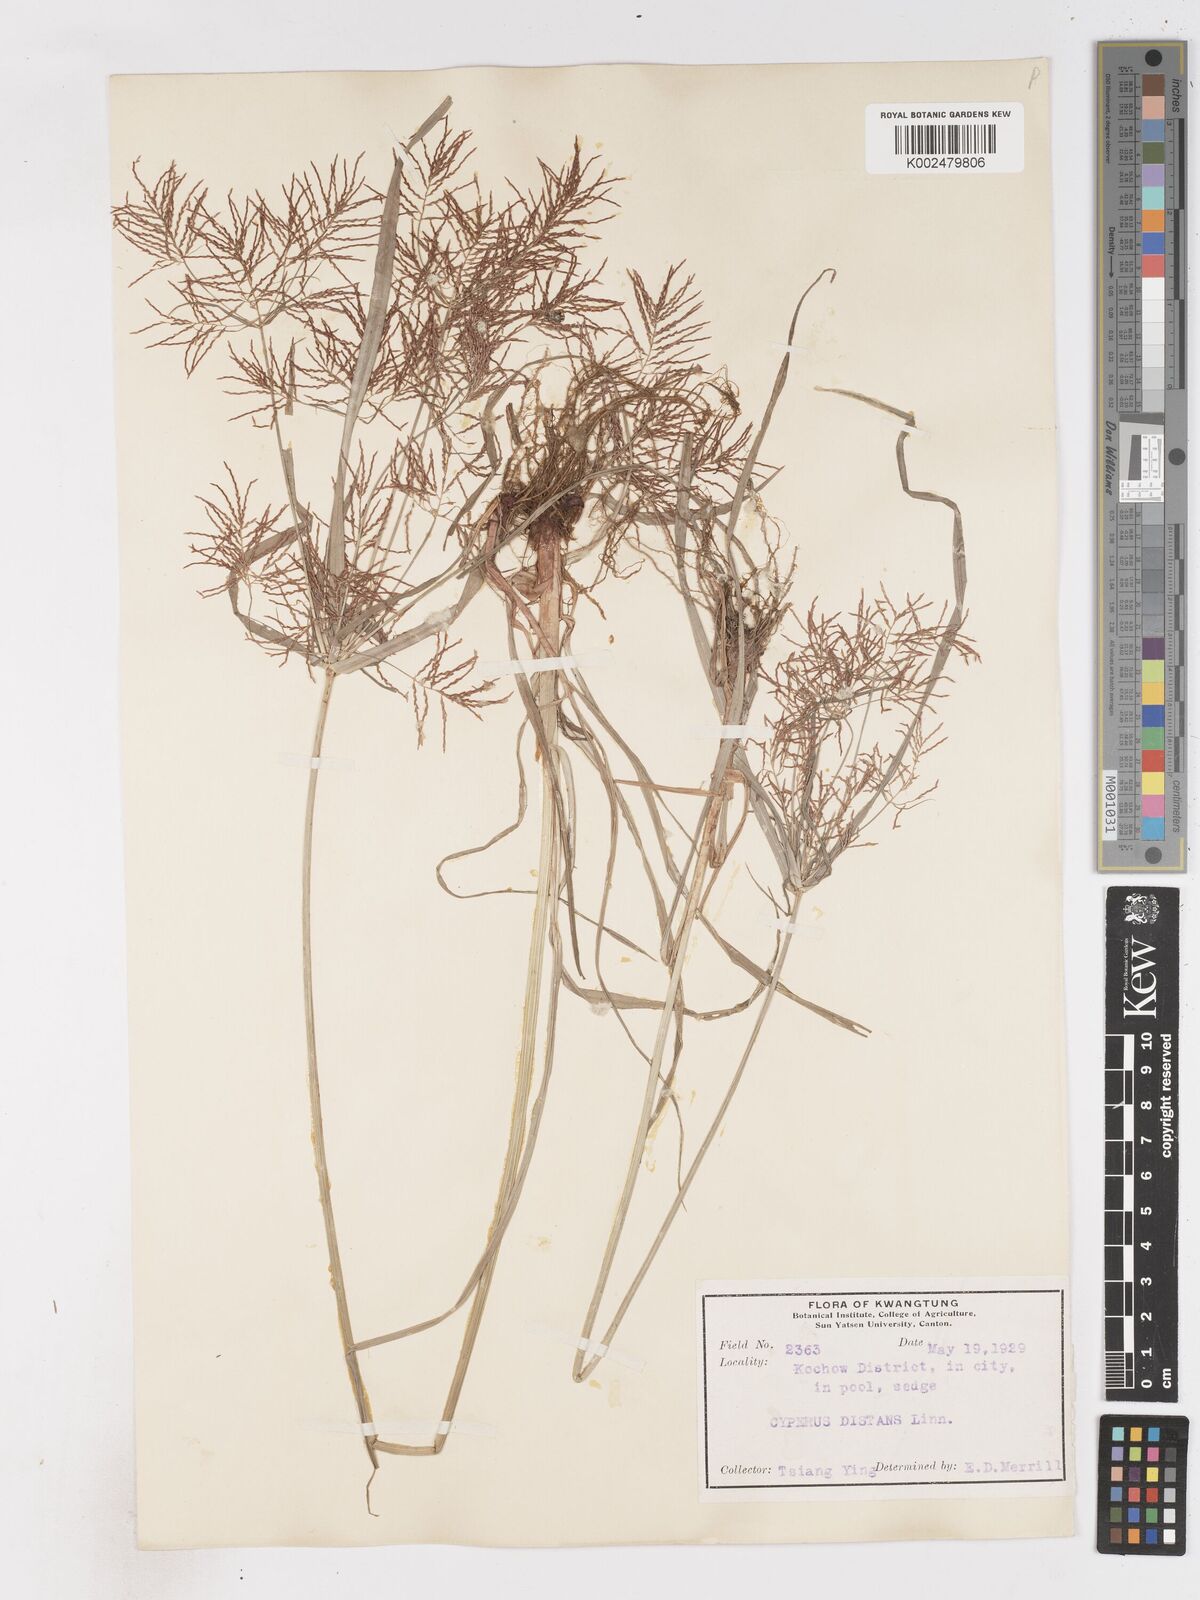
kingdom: Plantae
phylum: Tracheophyta
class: Liliopsida
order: Poales
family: Cyperaceae
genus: Cyperus
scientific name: Cyperus distans
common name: Slender cyperus
